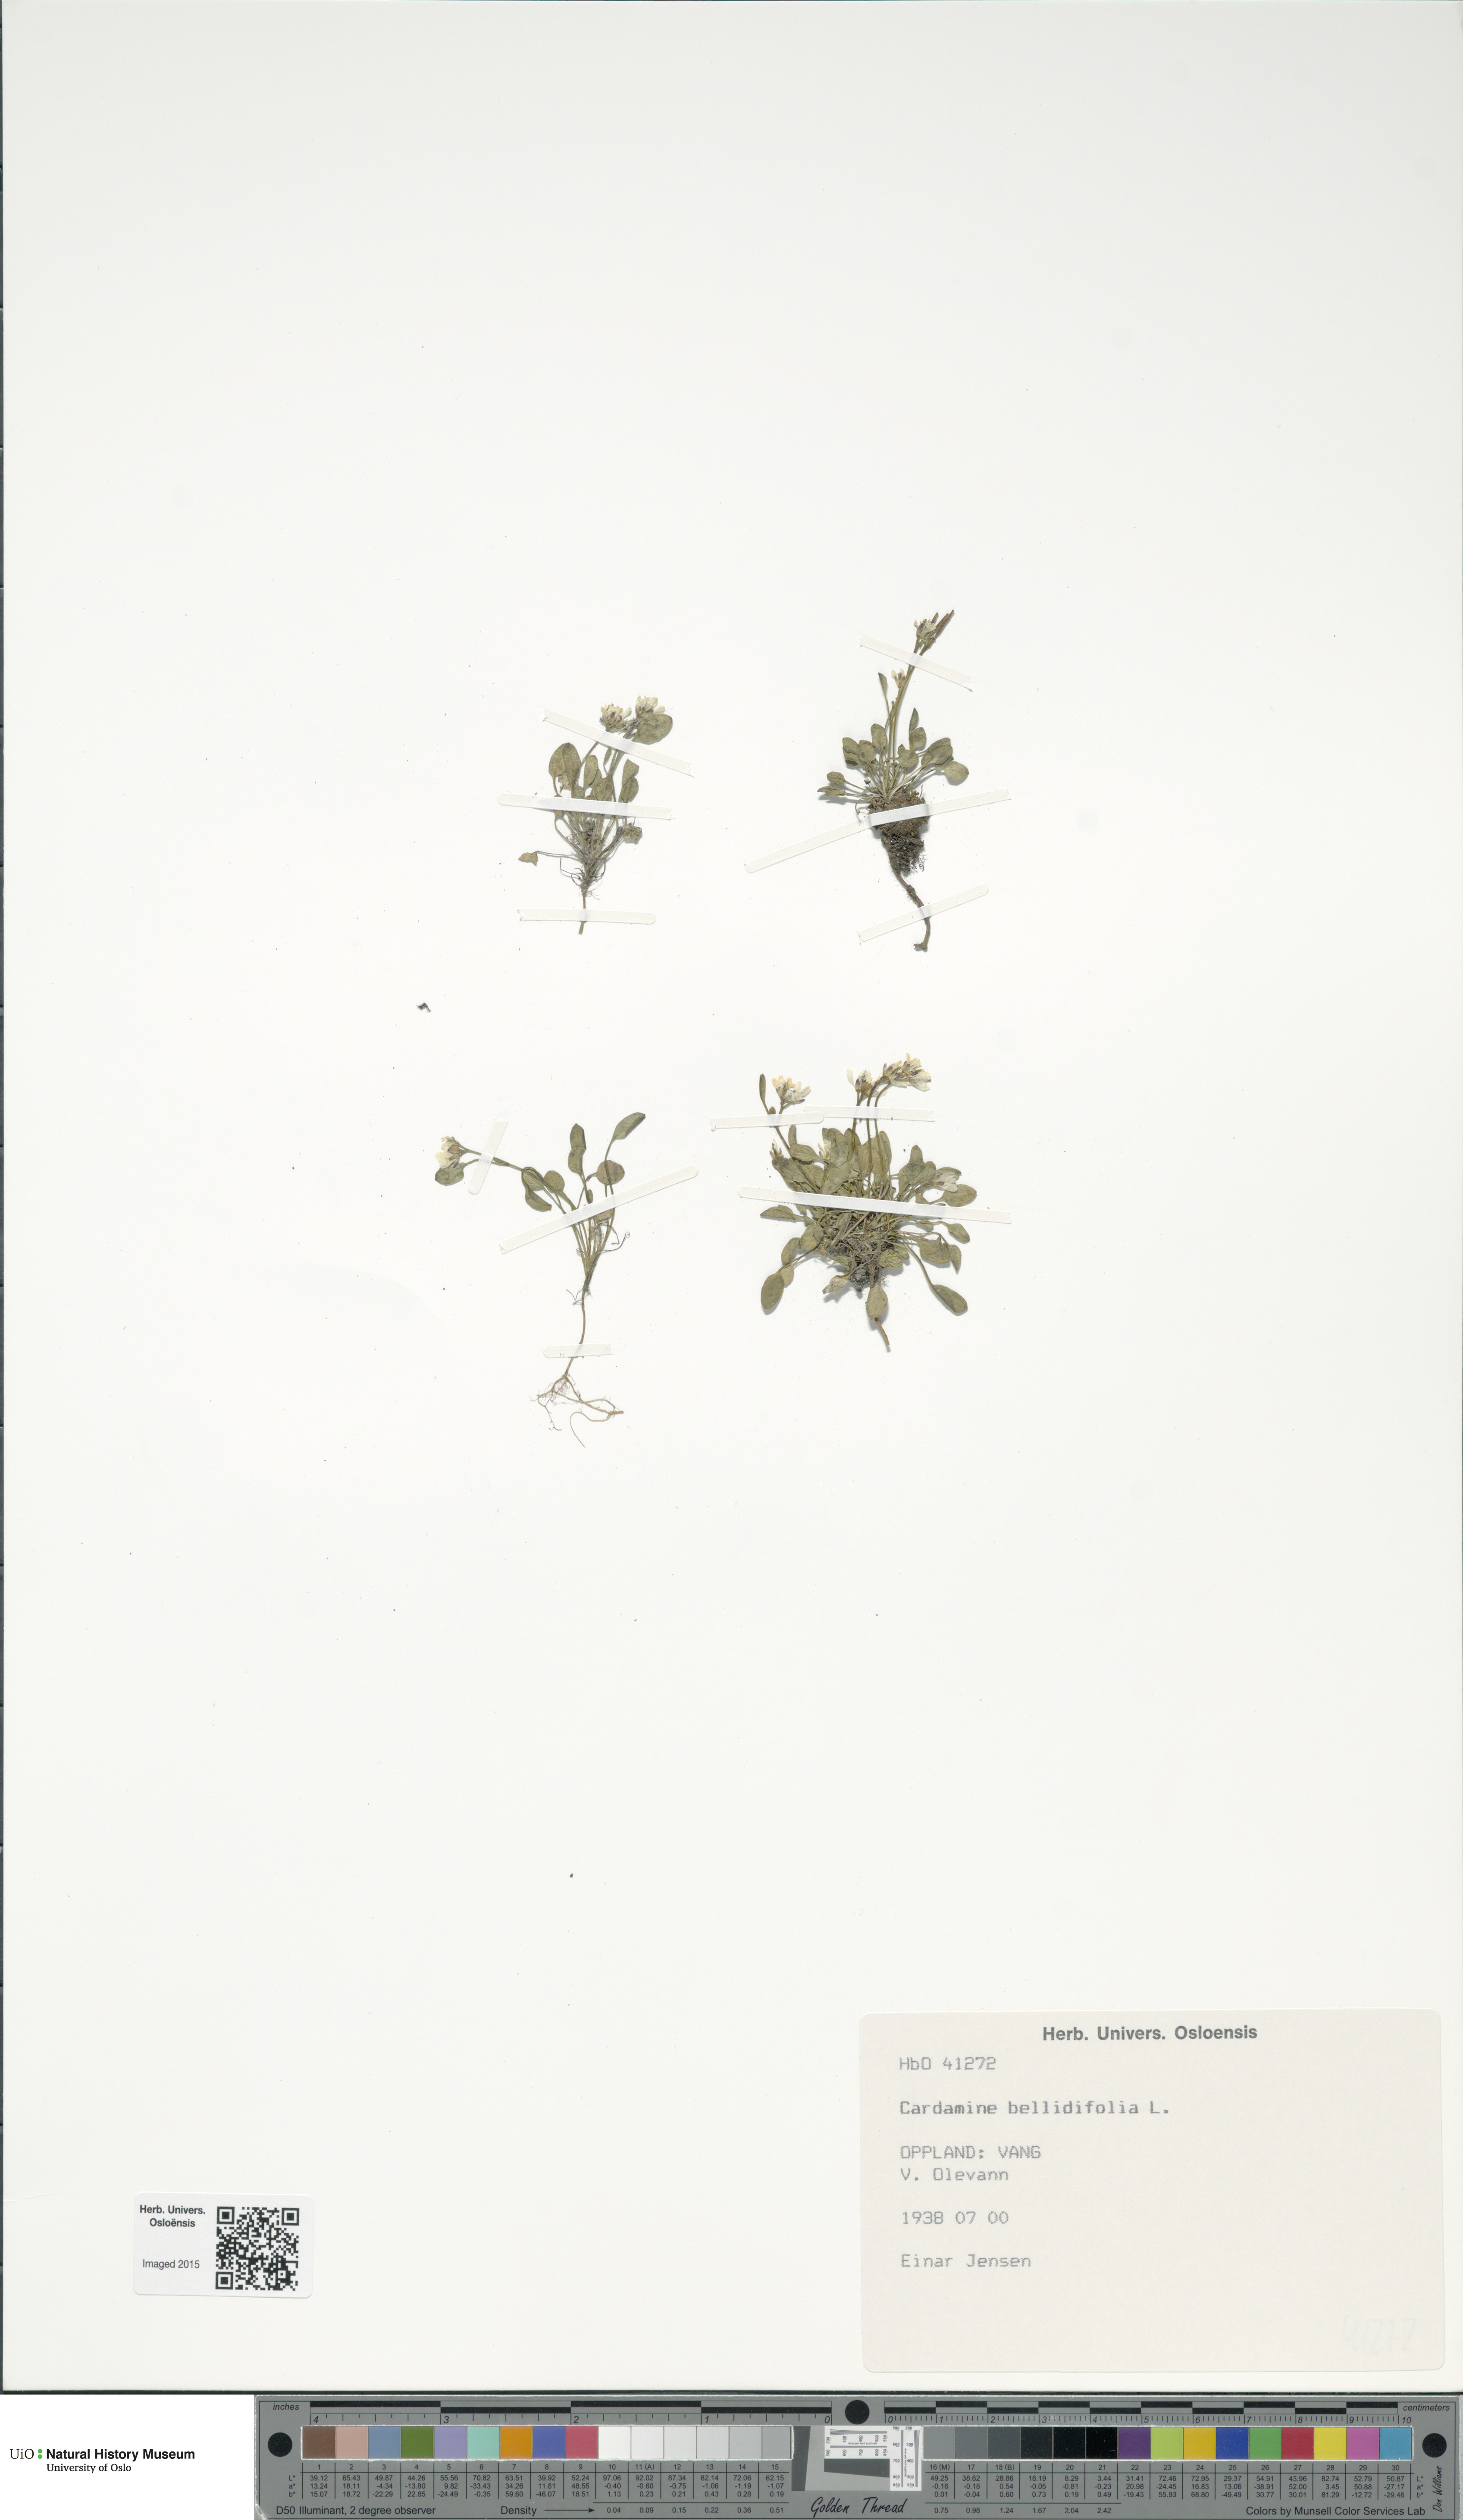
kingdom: Plantae
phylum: Tracheophyta
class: Magnoliopsida
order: Brassicales
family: Brassicaceae
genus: Cardamine
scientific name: Cardamine bellidifolia
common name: Alpine bittercress
